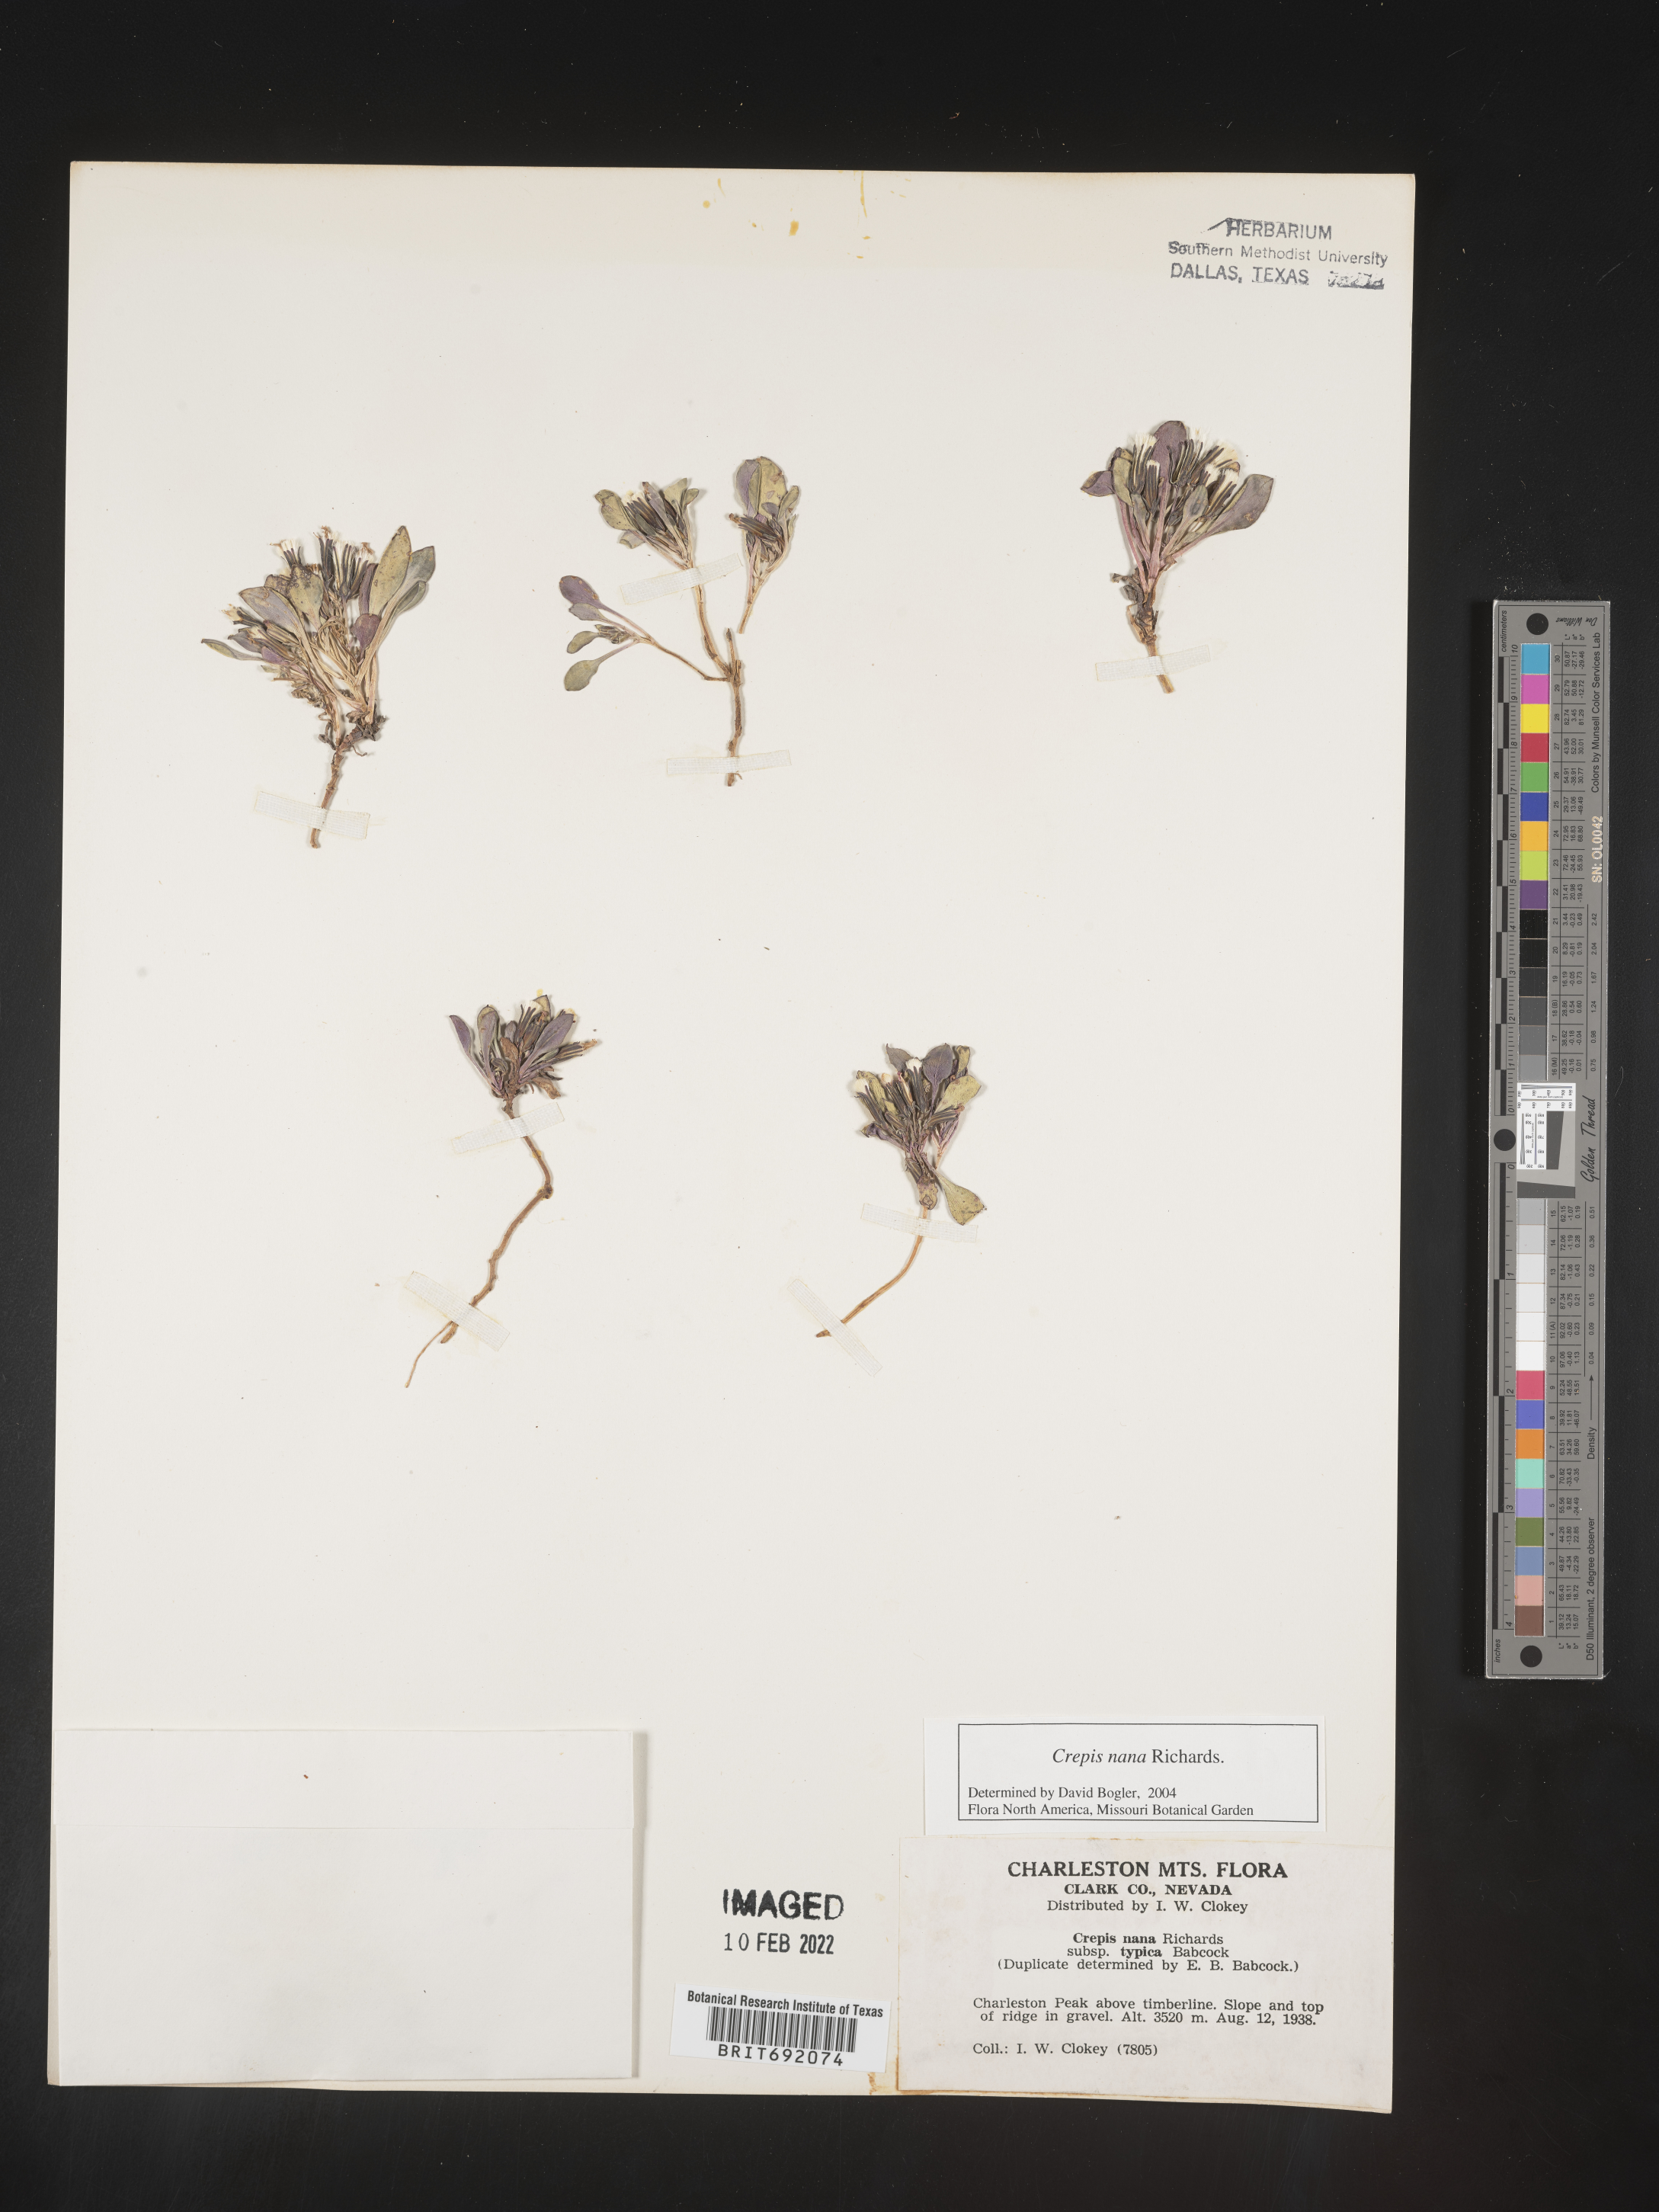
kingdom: Plantae
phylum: Tracheophyta
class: Magnoliopsida
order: Asterales
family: Asteraceae
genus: Crepis
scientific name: Crepis
